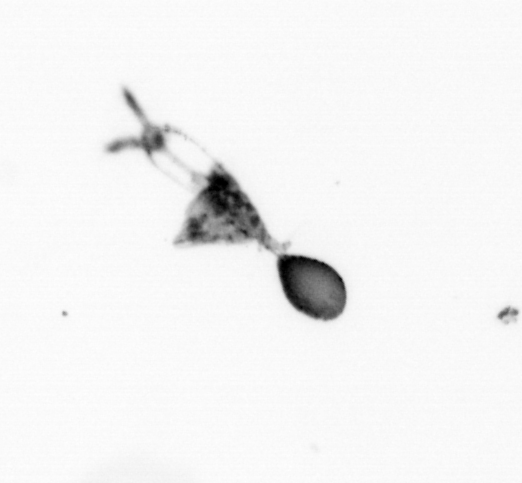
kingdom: Animalia
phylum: Arthropoda
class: Copepoda
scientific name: Copepoda
